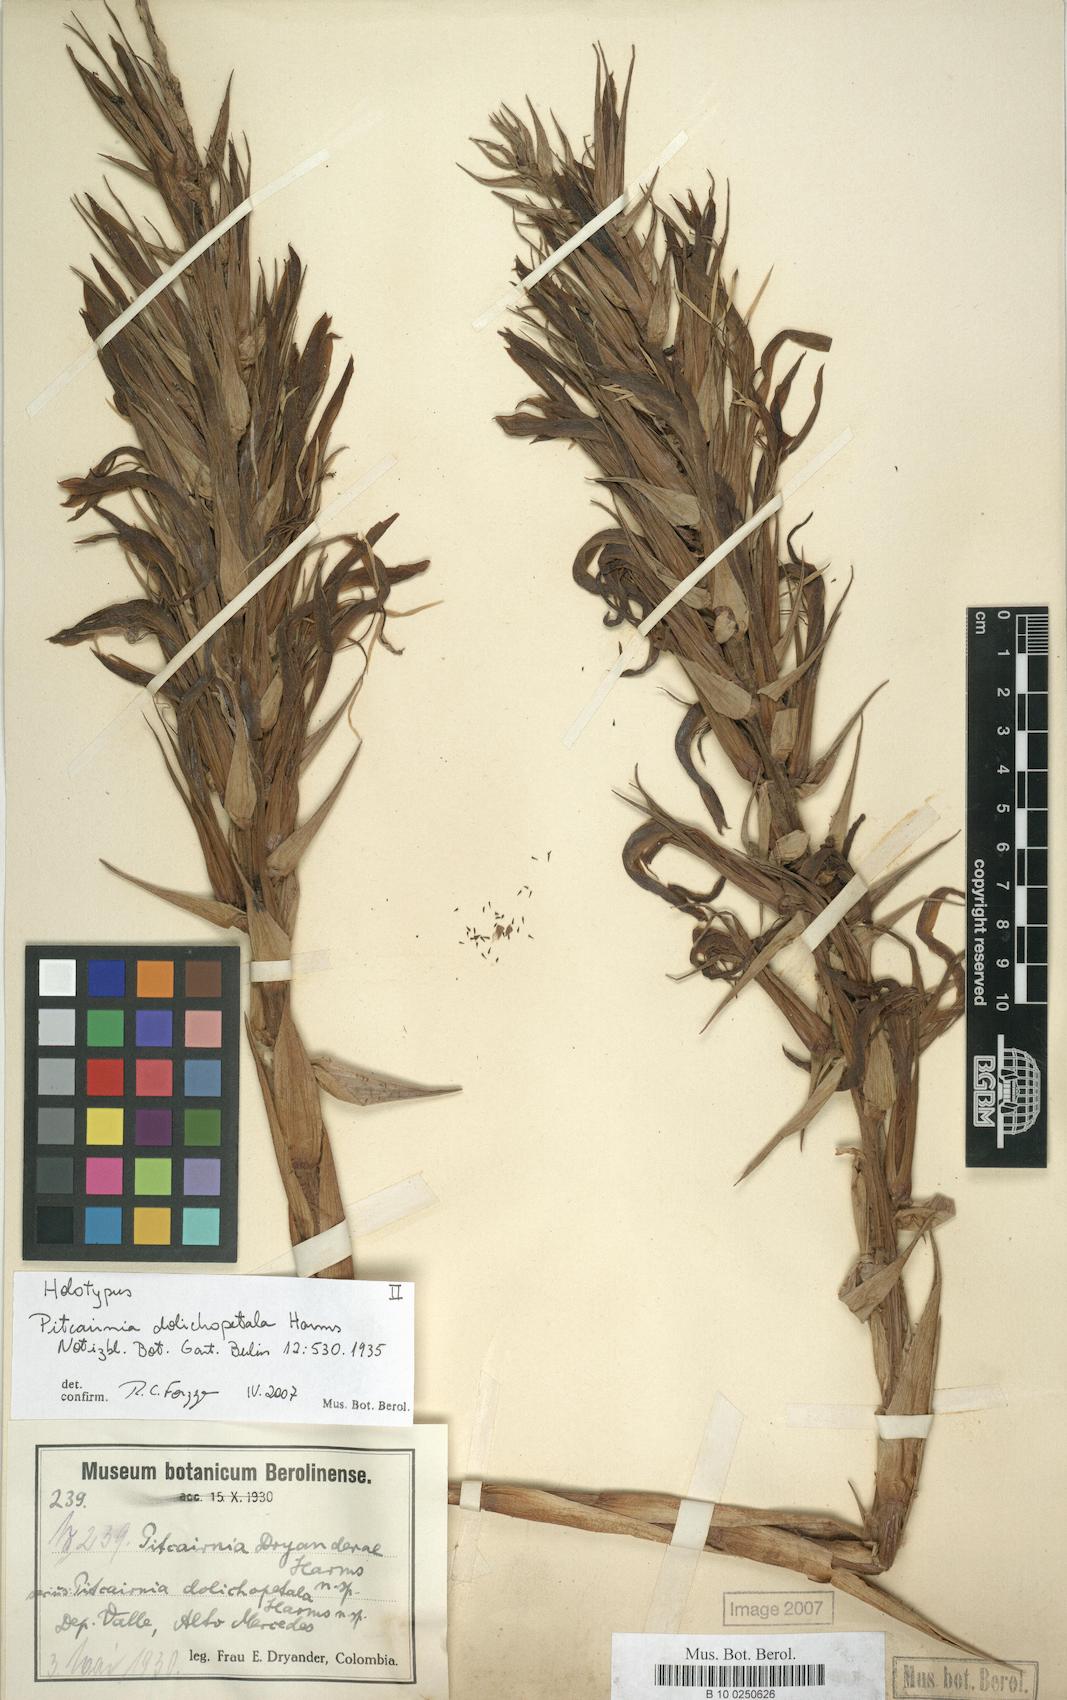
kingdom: Plantae
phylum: Tracheophyta
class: Liliopsida
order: Poales
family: Bromeliaceae
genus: Pitcairnia
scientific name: Pitcairnia dolichopetala
